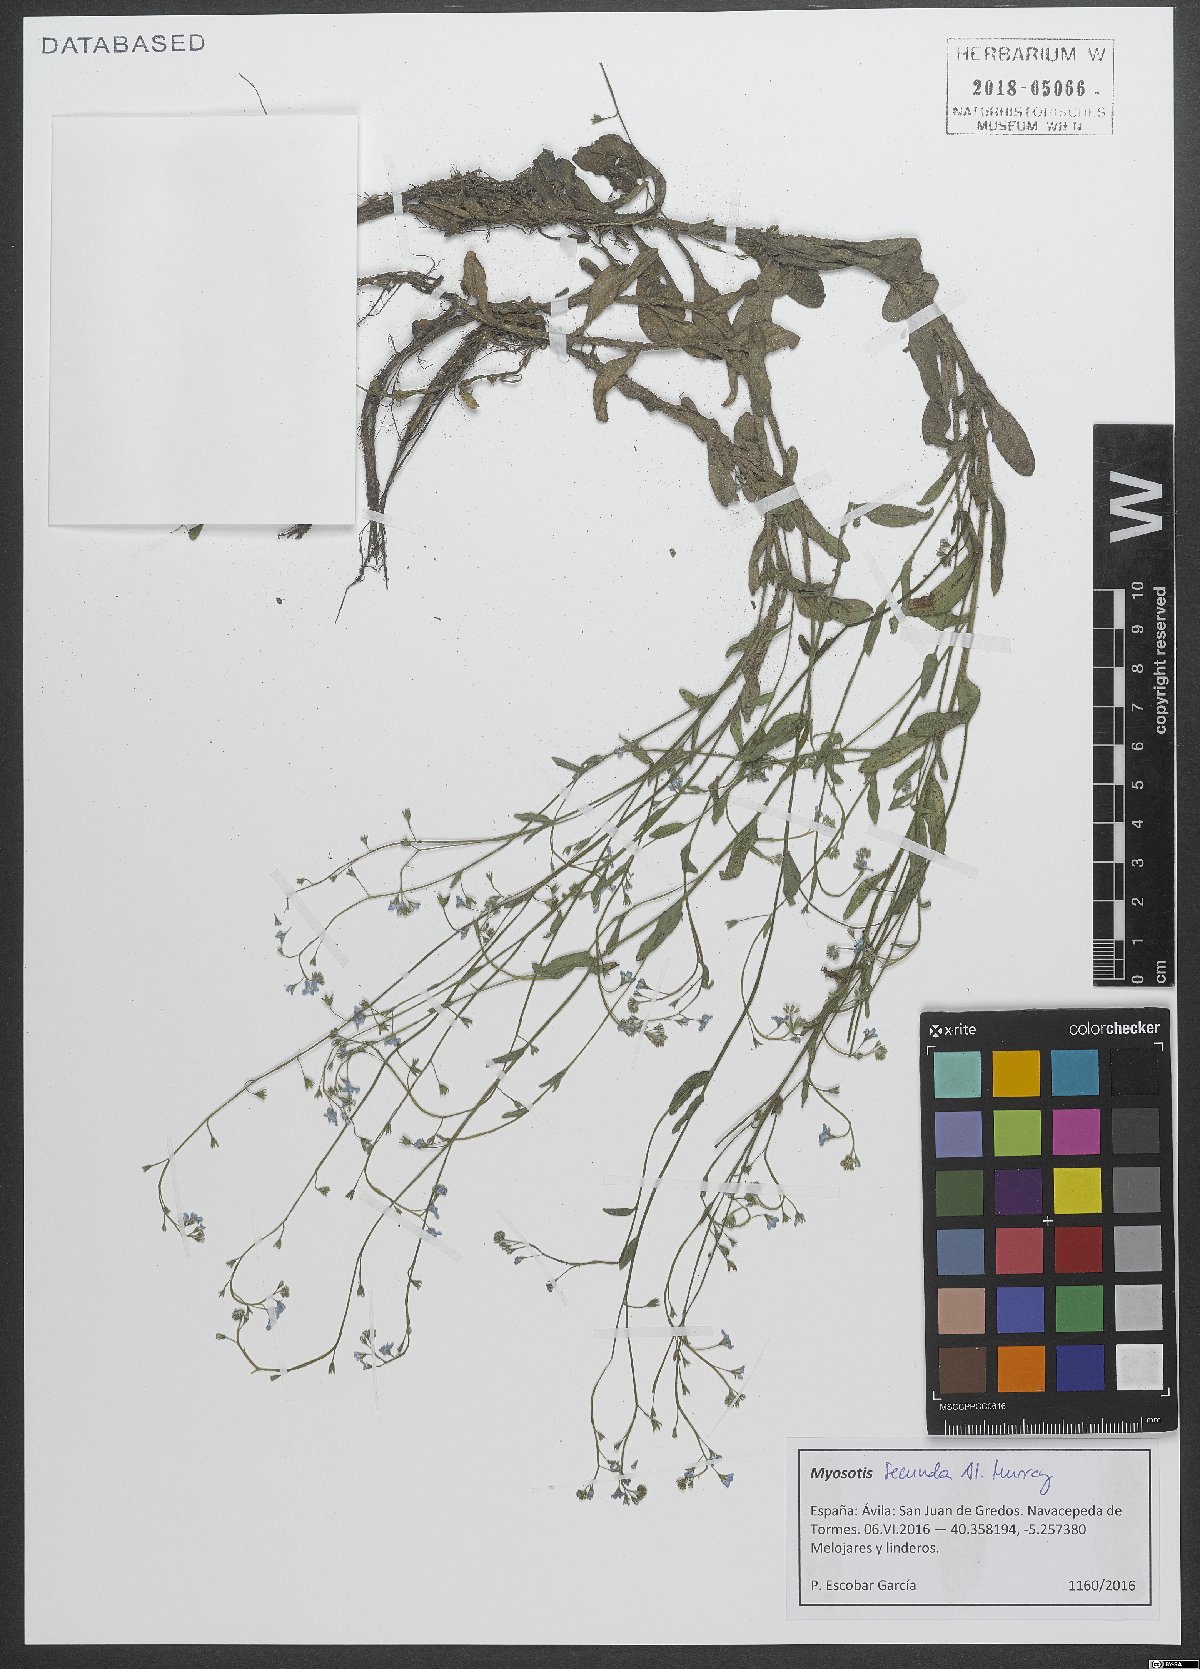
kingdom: Plantae
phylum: Tracheophyta
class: Magnoliopsida
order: Boraginales
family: Boraginaceae
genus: Myosotis
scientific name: Myosotis secunda
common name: Creeping forget-me-not
